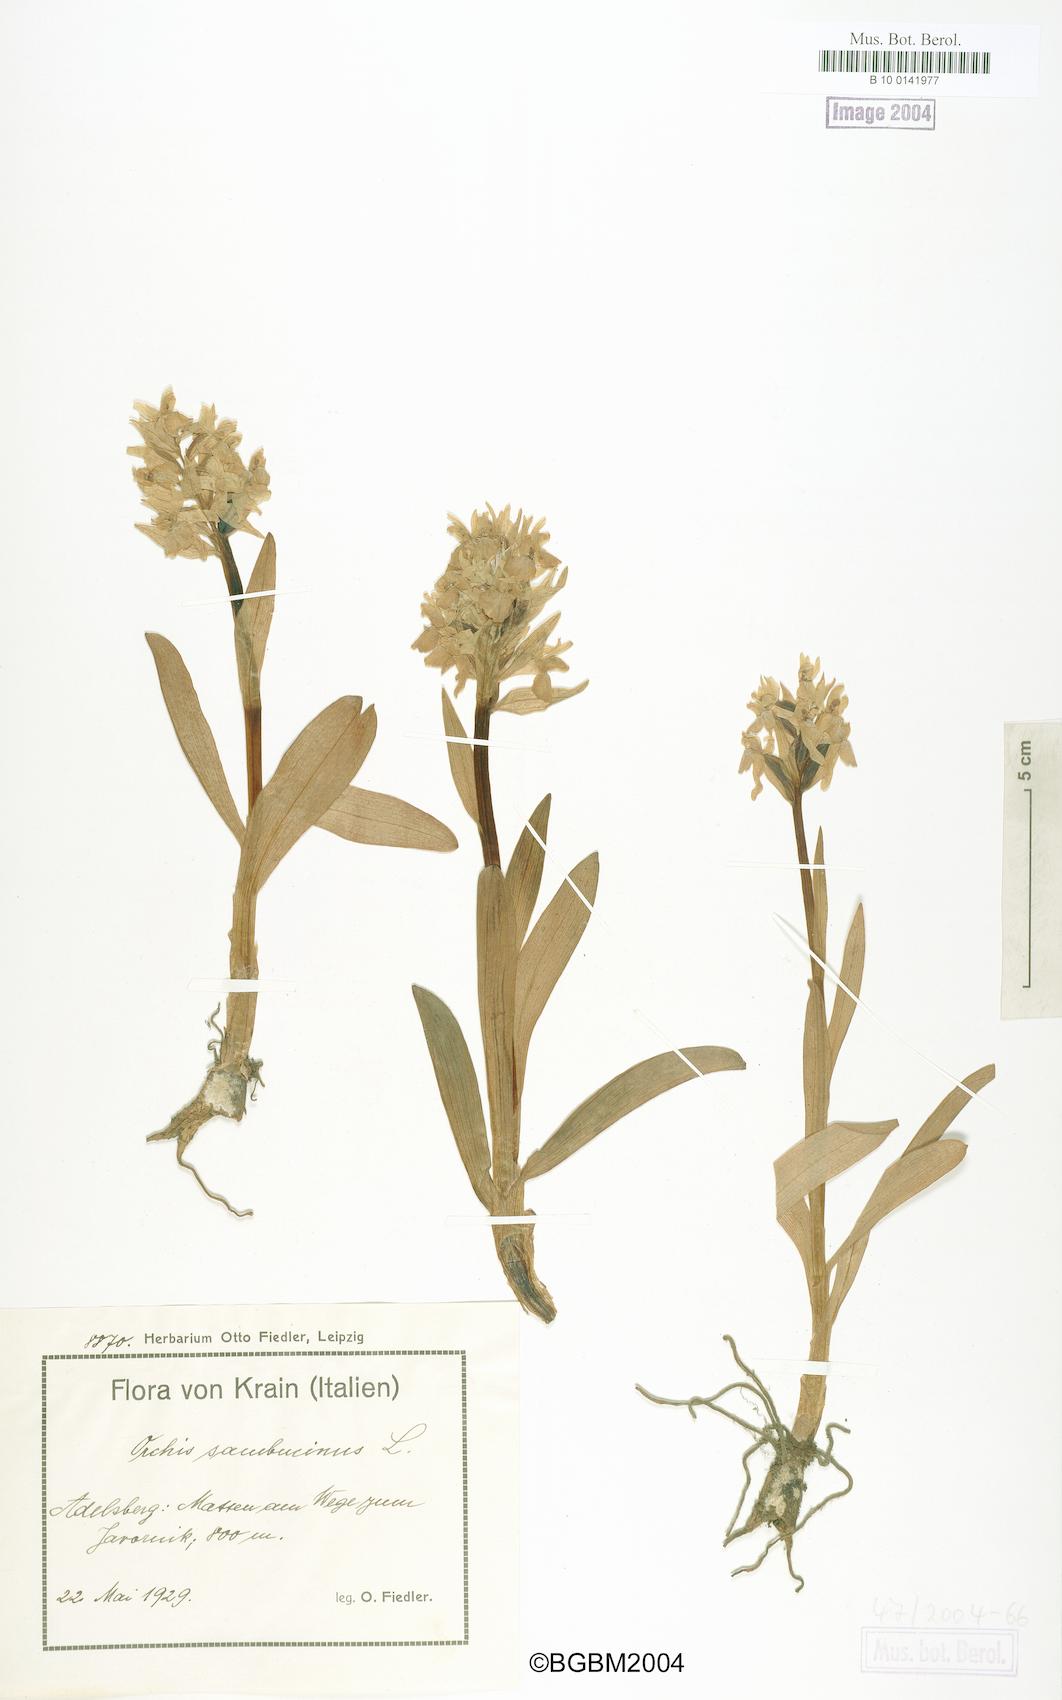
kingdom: Plantae
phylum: Tracheophyta
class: Liliopsida
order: Asparagales
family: Orchidaceae
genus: Dactylorhiza
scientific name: Dactylorhiza sambucina
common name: Elder-flowered orchid
